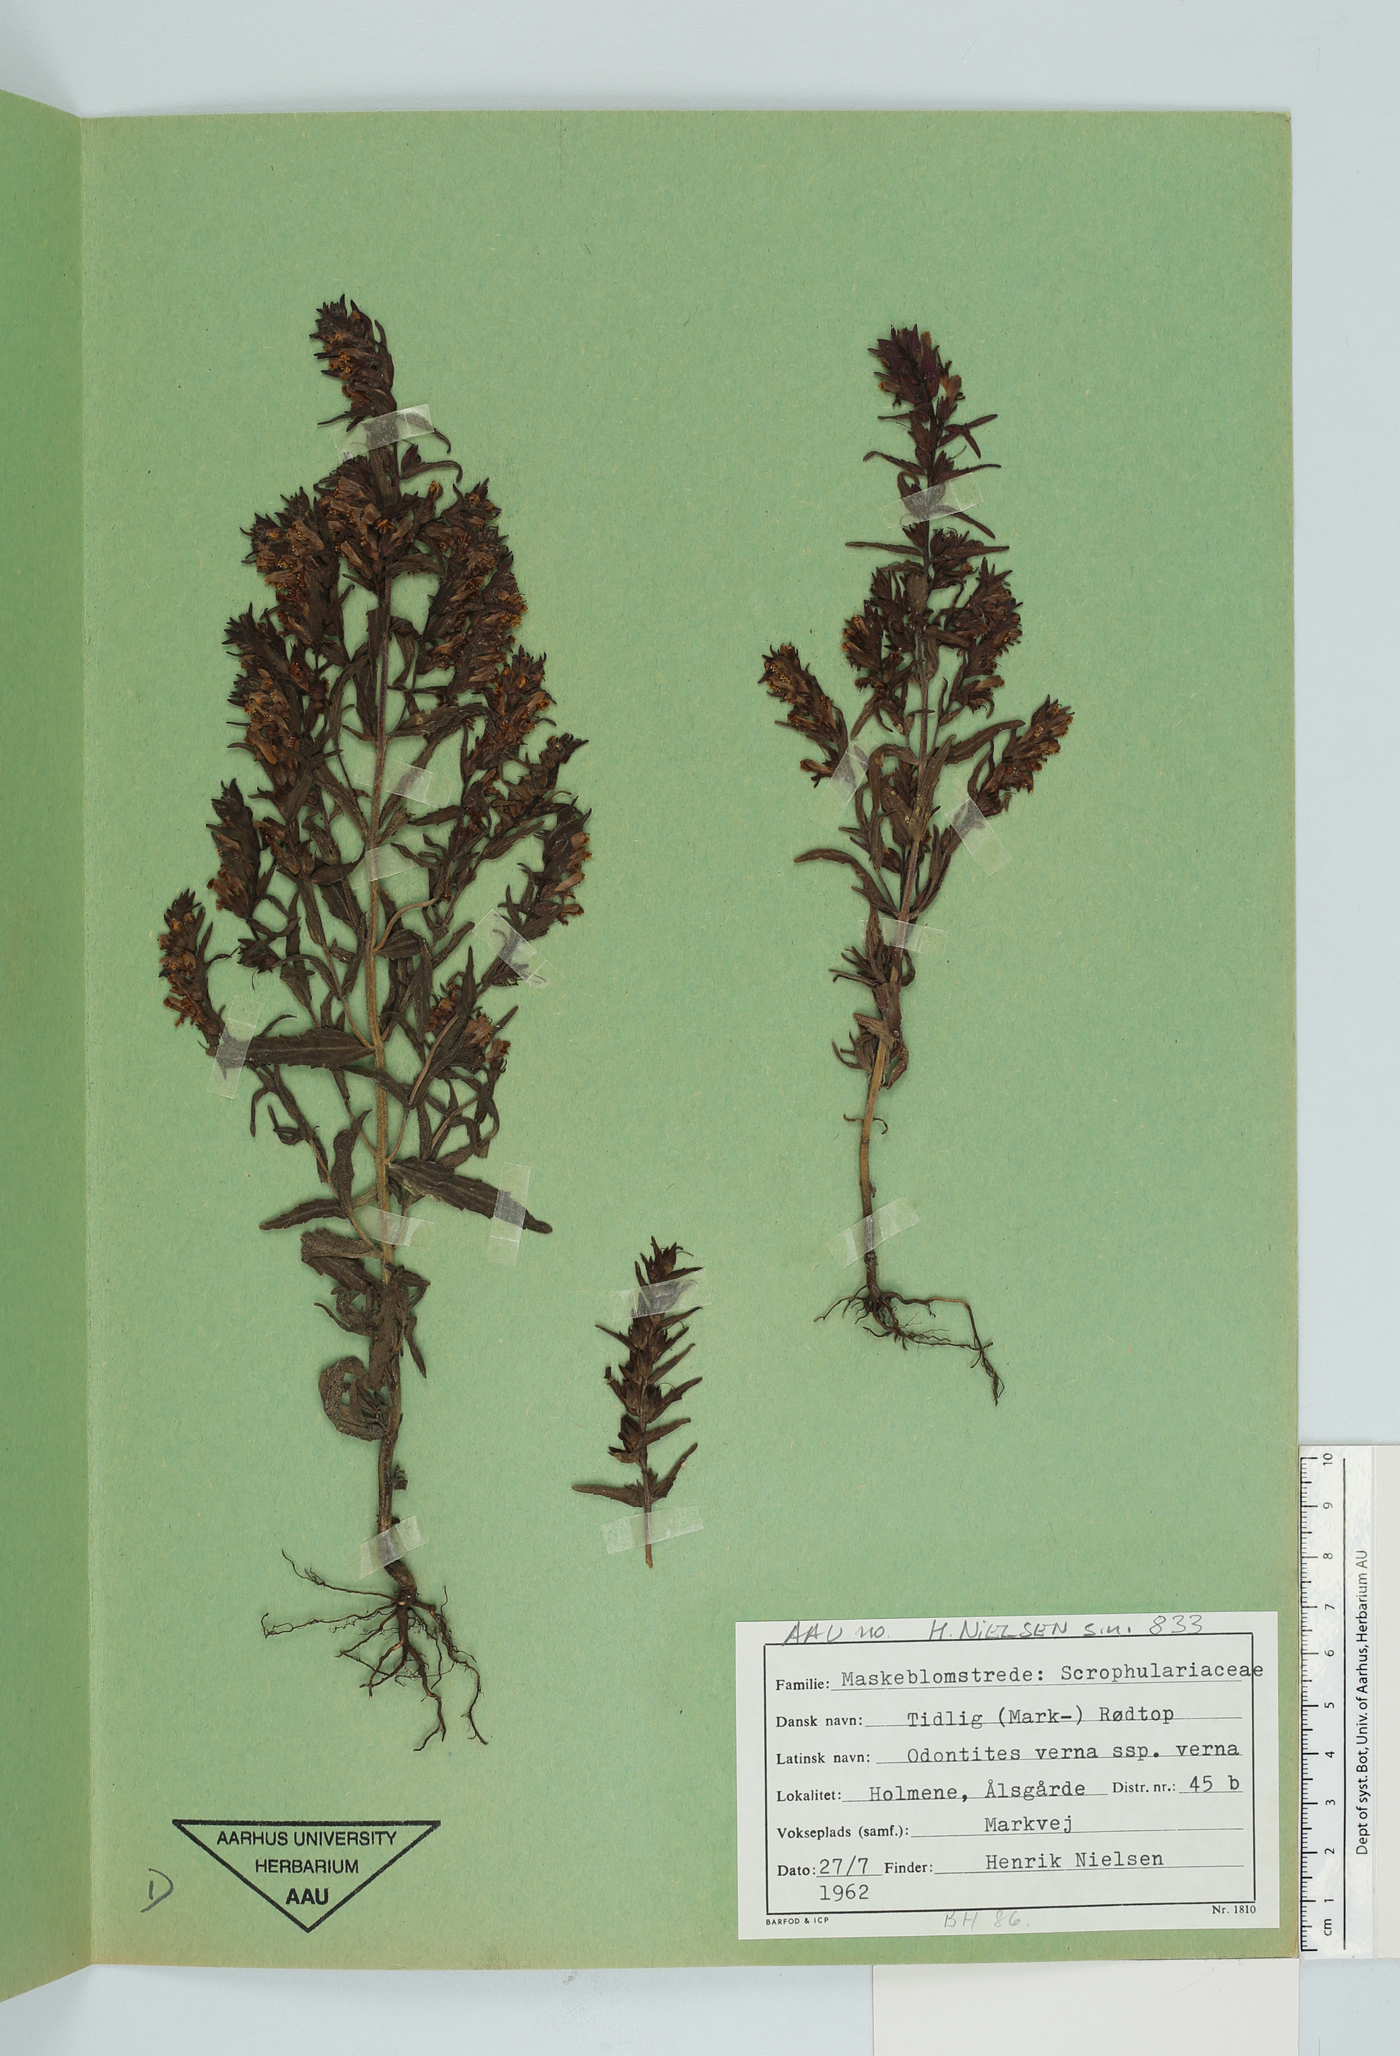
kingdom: Plantae
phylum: Tracheophyta
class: Magnoliopsida
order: Lamiales
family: Orobanchaceae
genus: Odontites
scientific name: Odontites vernus
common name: Red bartsia
